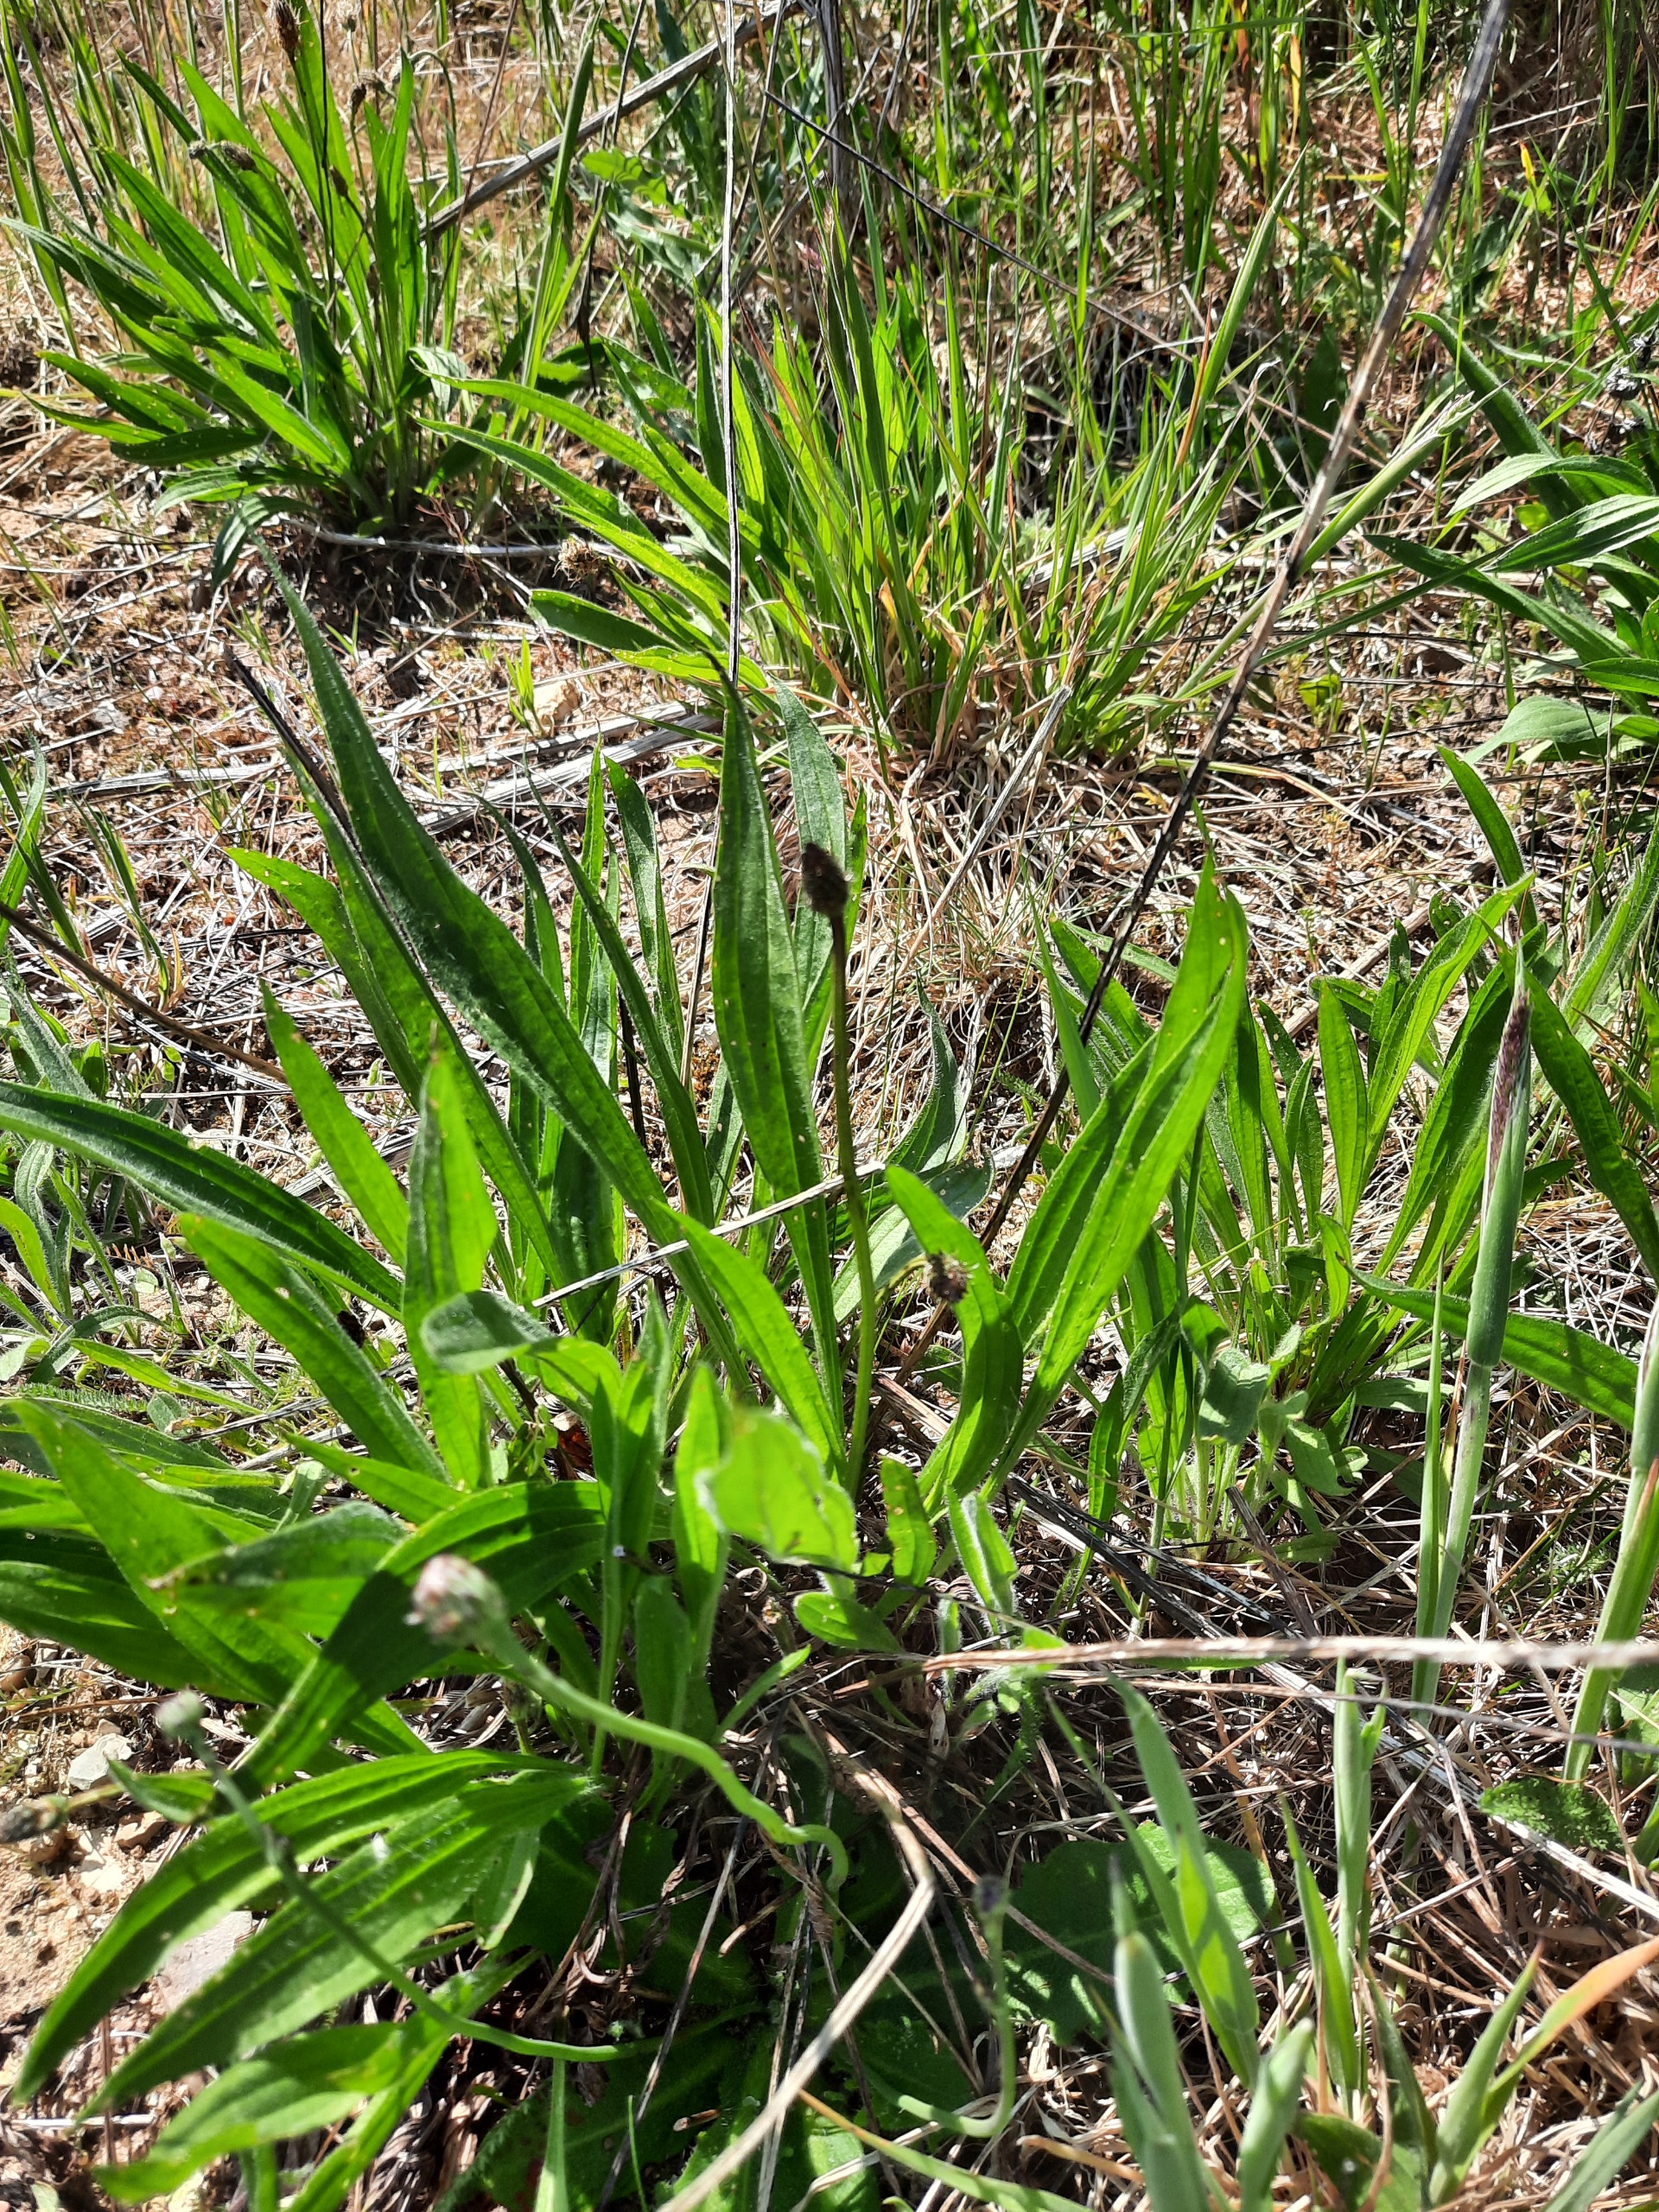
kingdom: Plantae
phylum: Tracheophyta
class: Magnoliopsida
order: Lamiales
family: Plantaginaceae
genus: Plantago
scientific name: Plantago lanceolata
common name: Lancet-vejbred
